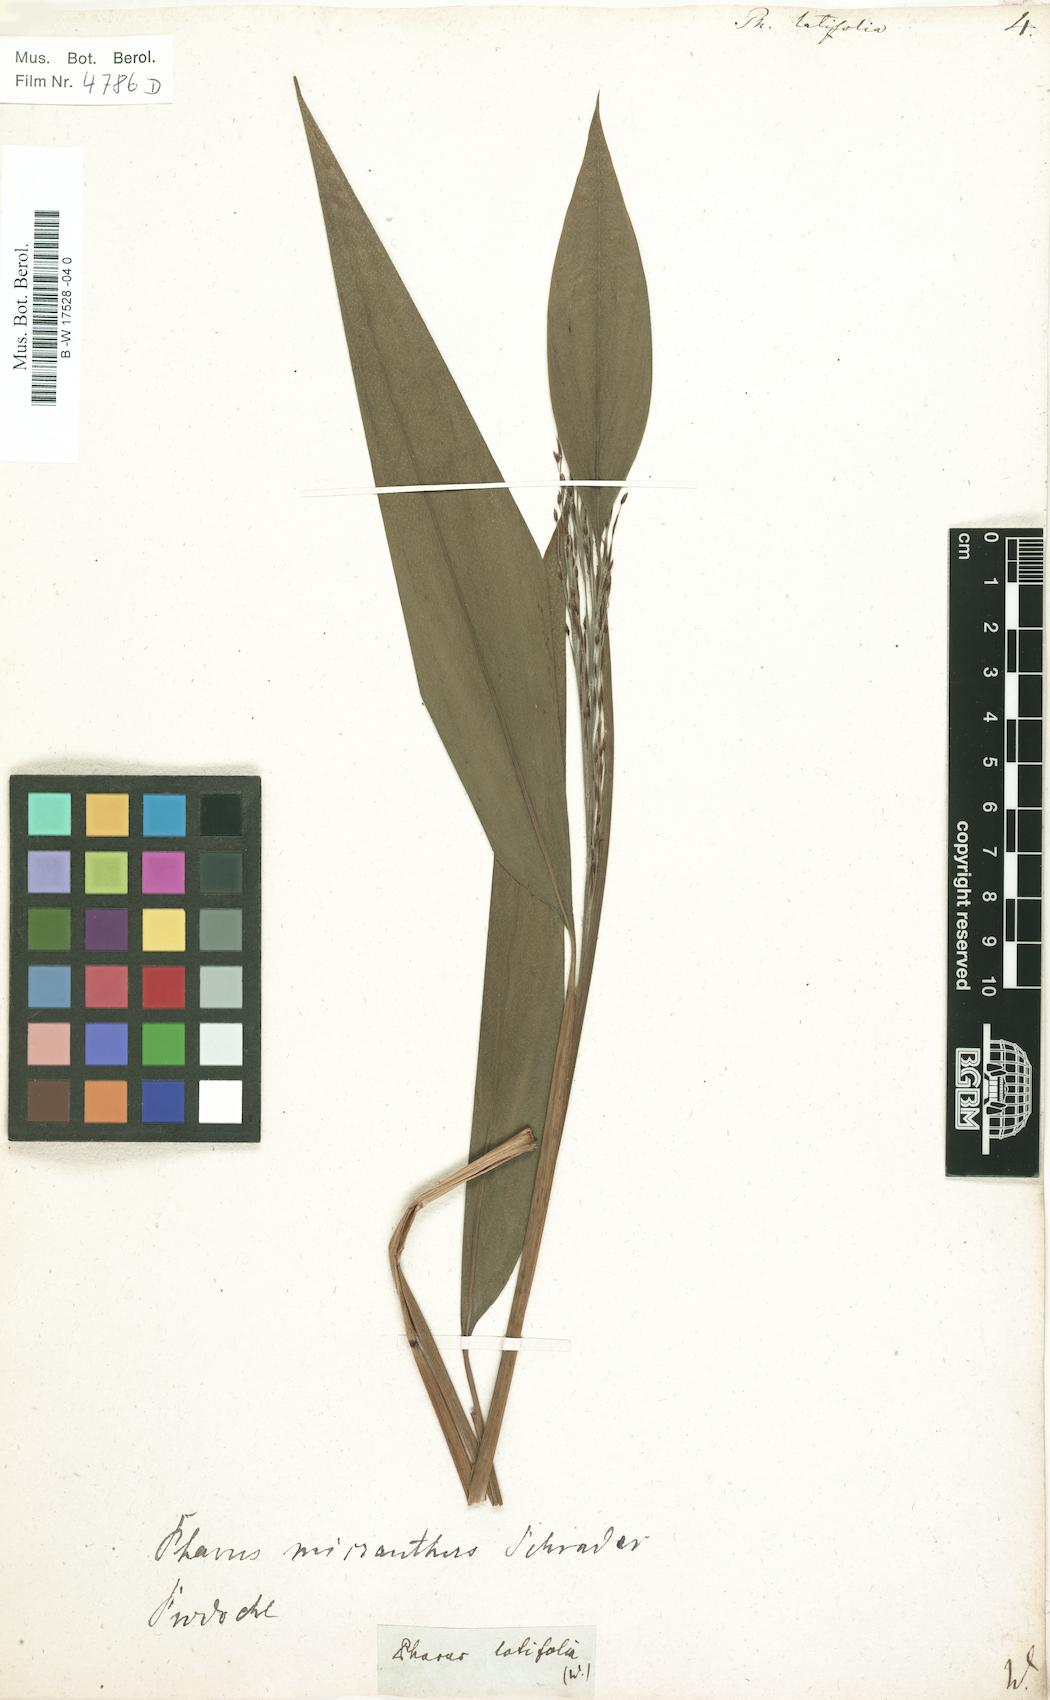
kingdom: Plantae
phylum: Tracheophyta
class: Liliopsida
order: Poales
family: Poaceae
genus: Pharus
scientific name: Pharus latifolius
